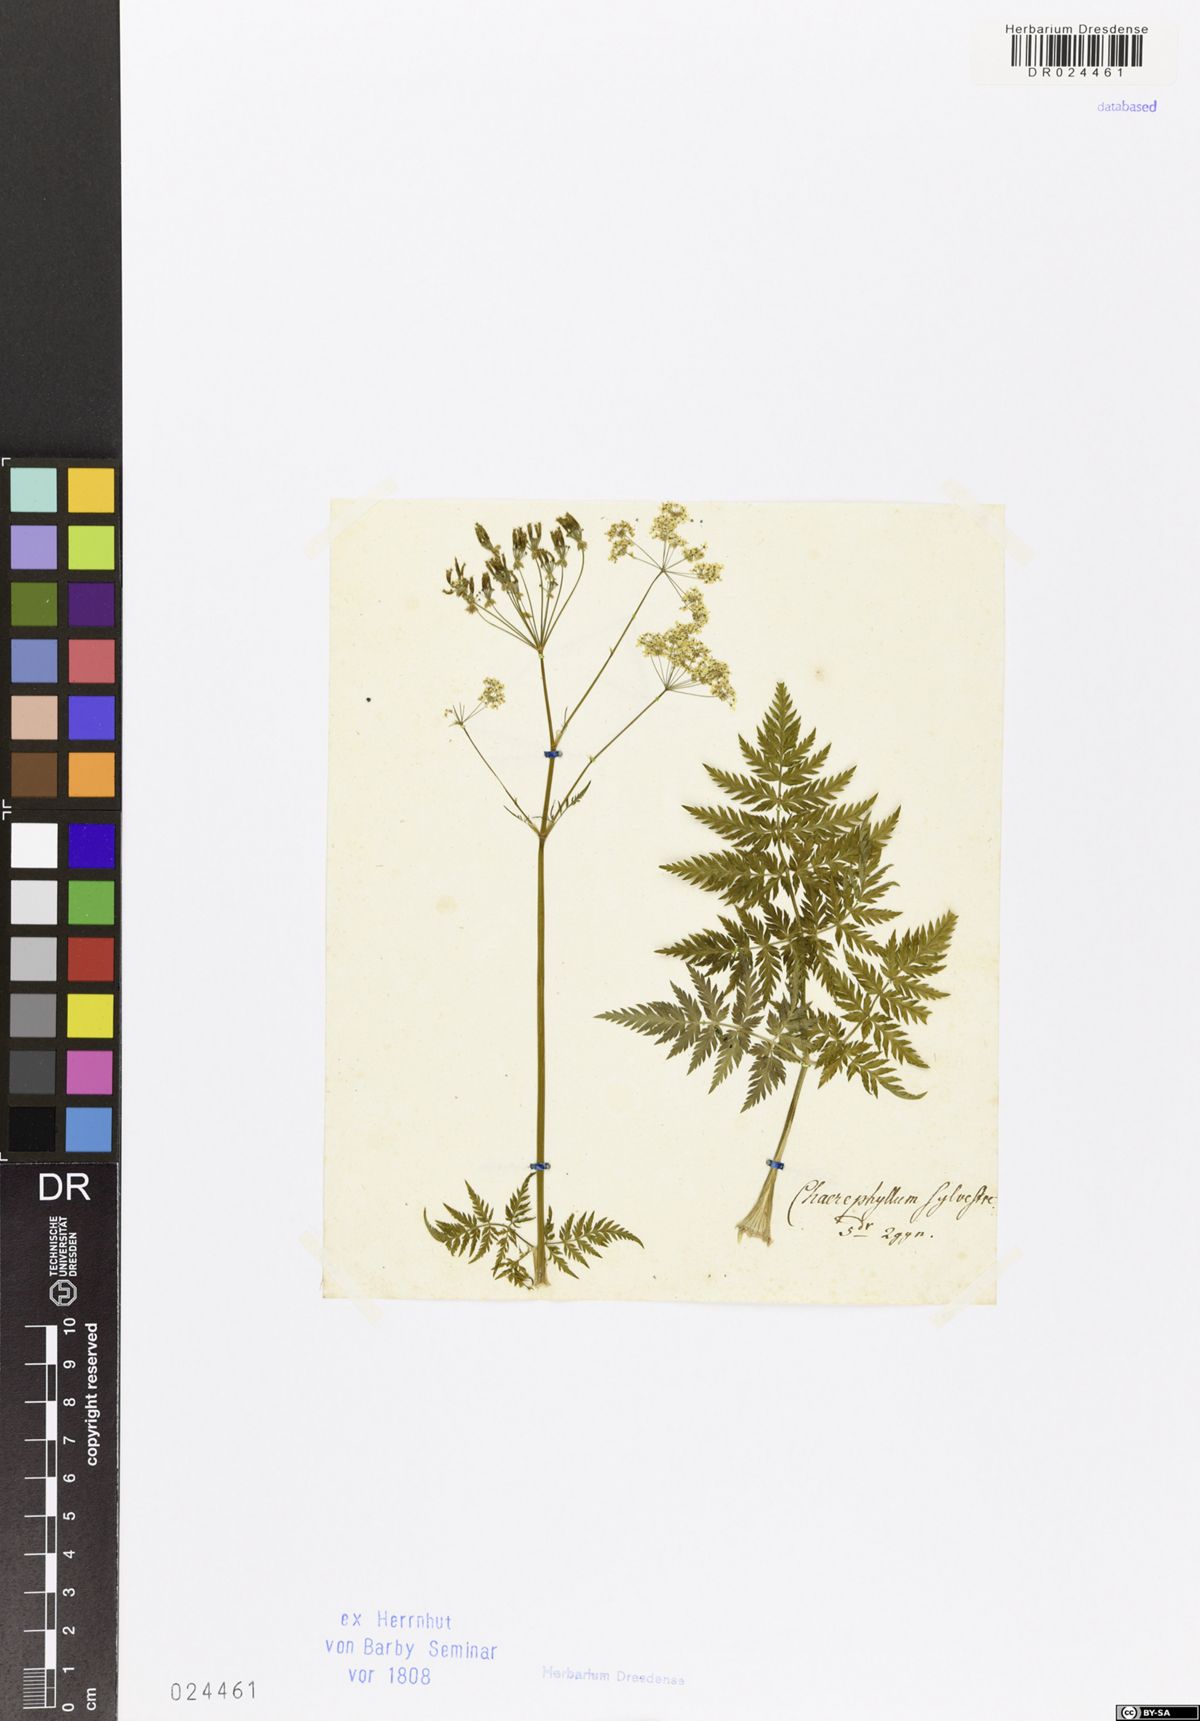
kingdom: Plantae
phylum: Tracheophyta
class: Magnoliopsida
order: Apiales
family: Apiaceae
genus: Anthriscus
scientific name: Anthriscus sylvestris
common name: Cow parsley
